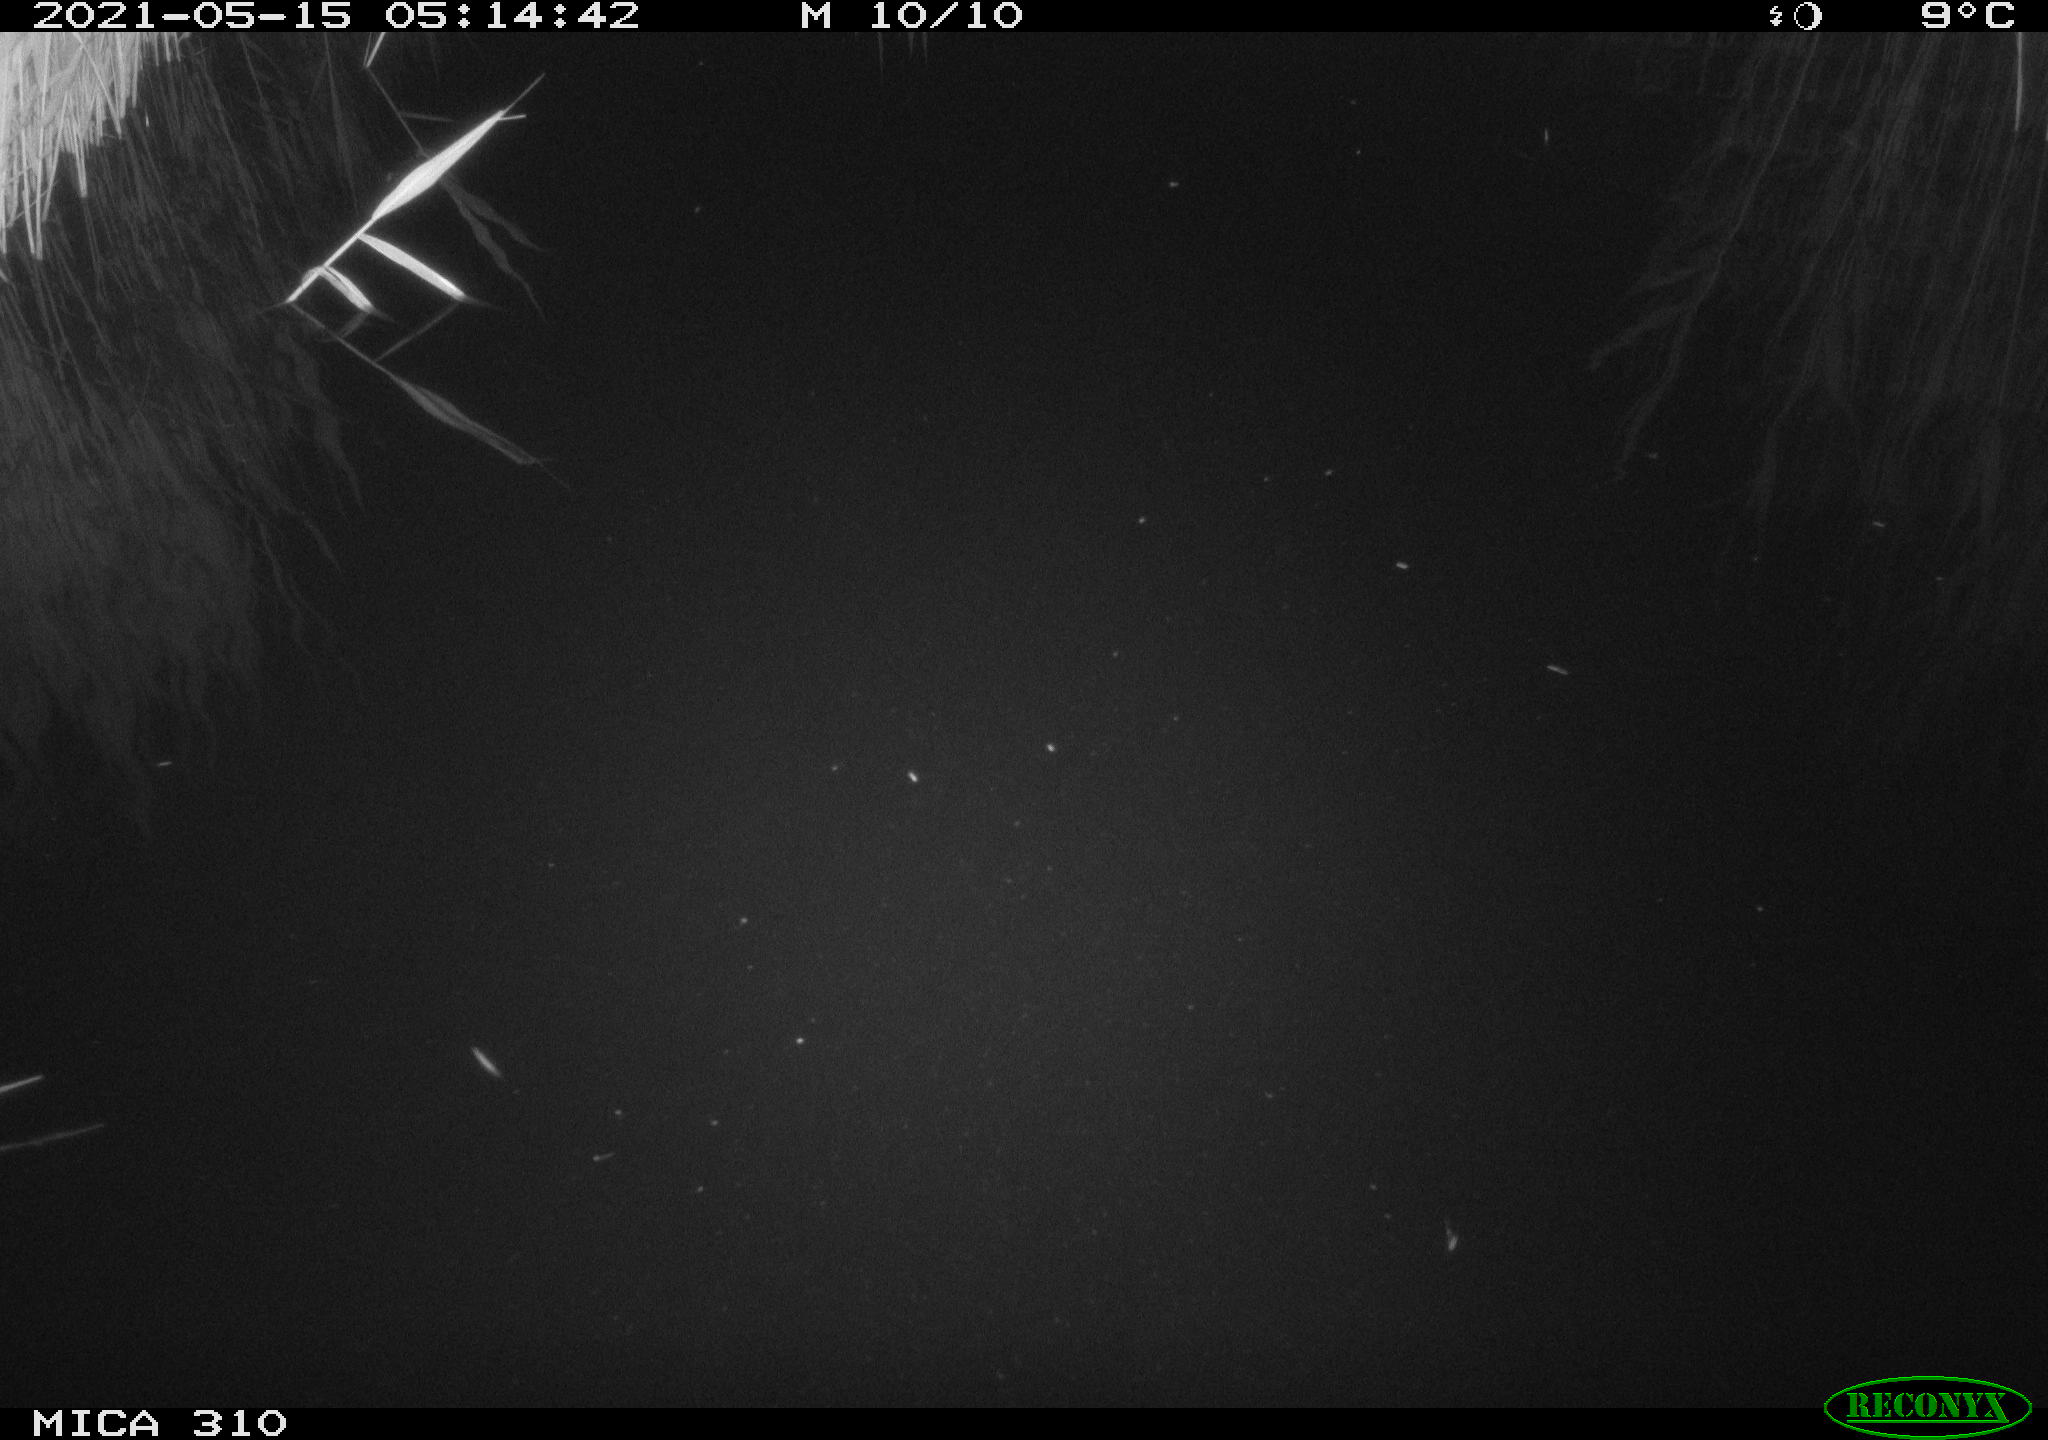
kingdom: Animalia
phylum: Chordata
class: Aves
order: Anseriformes
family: Anatidae
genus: Anas
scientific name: Anas platyrhynchos
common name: Mallard
